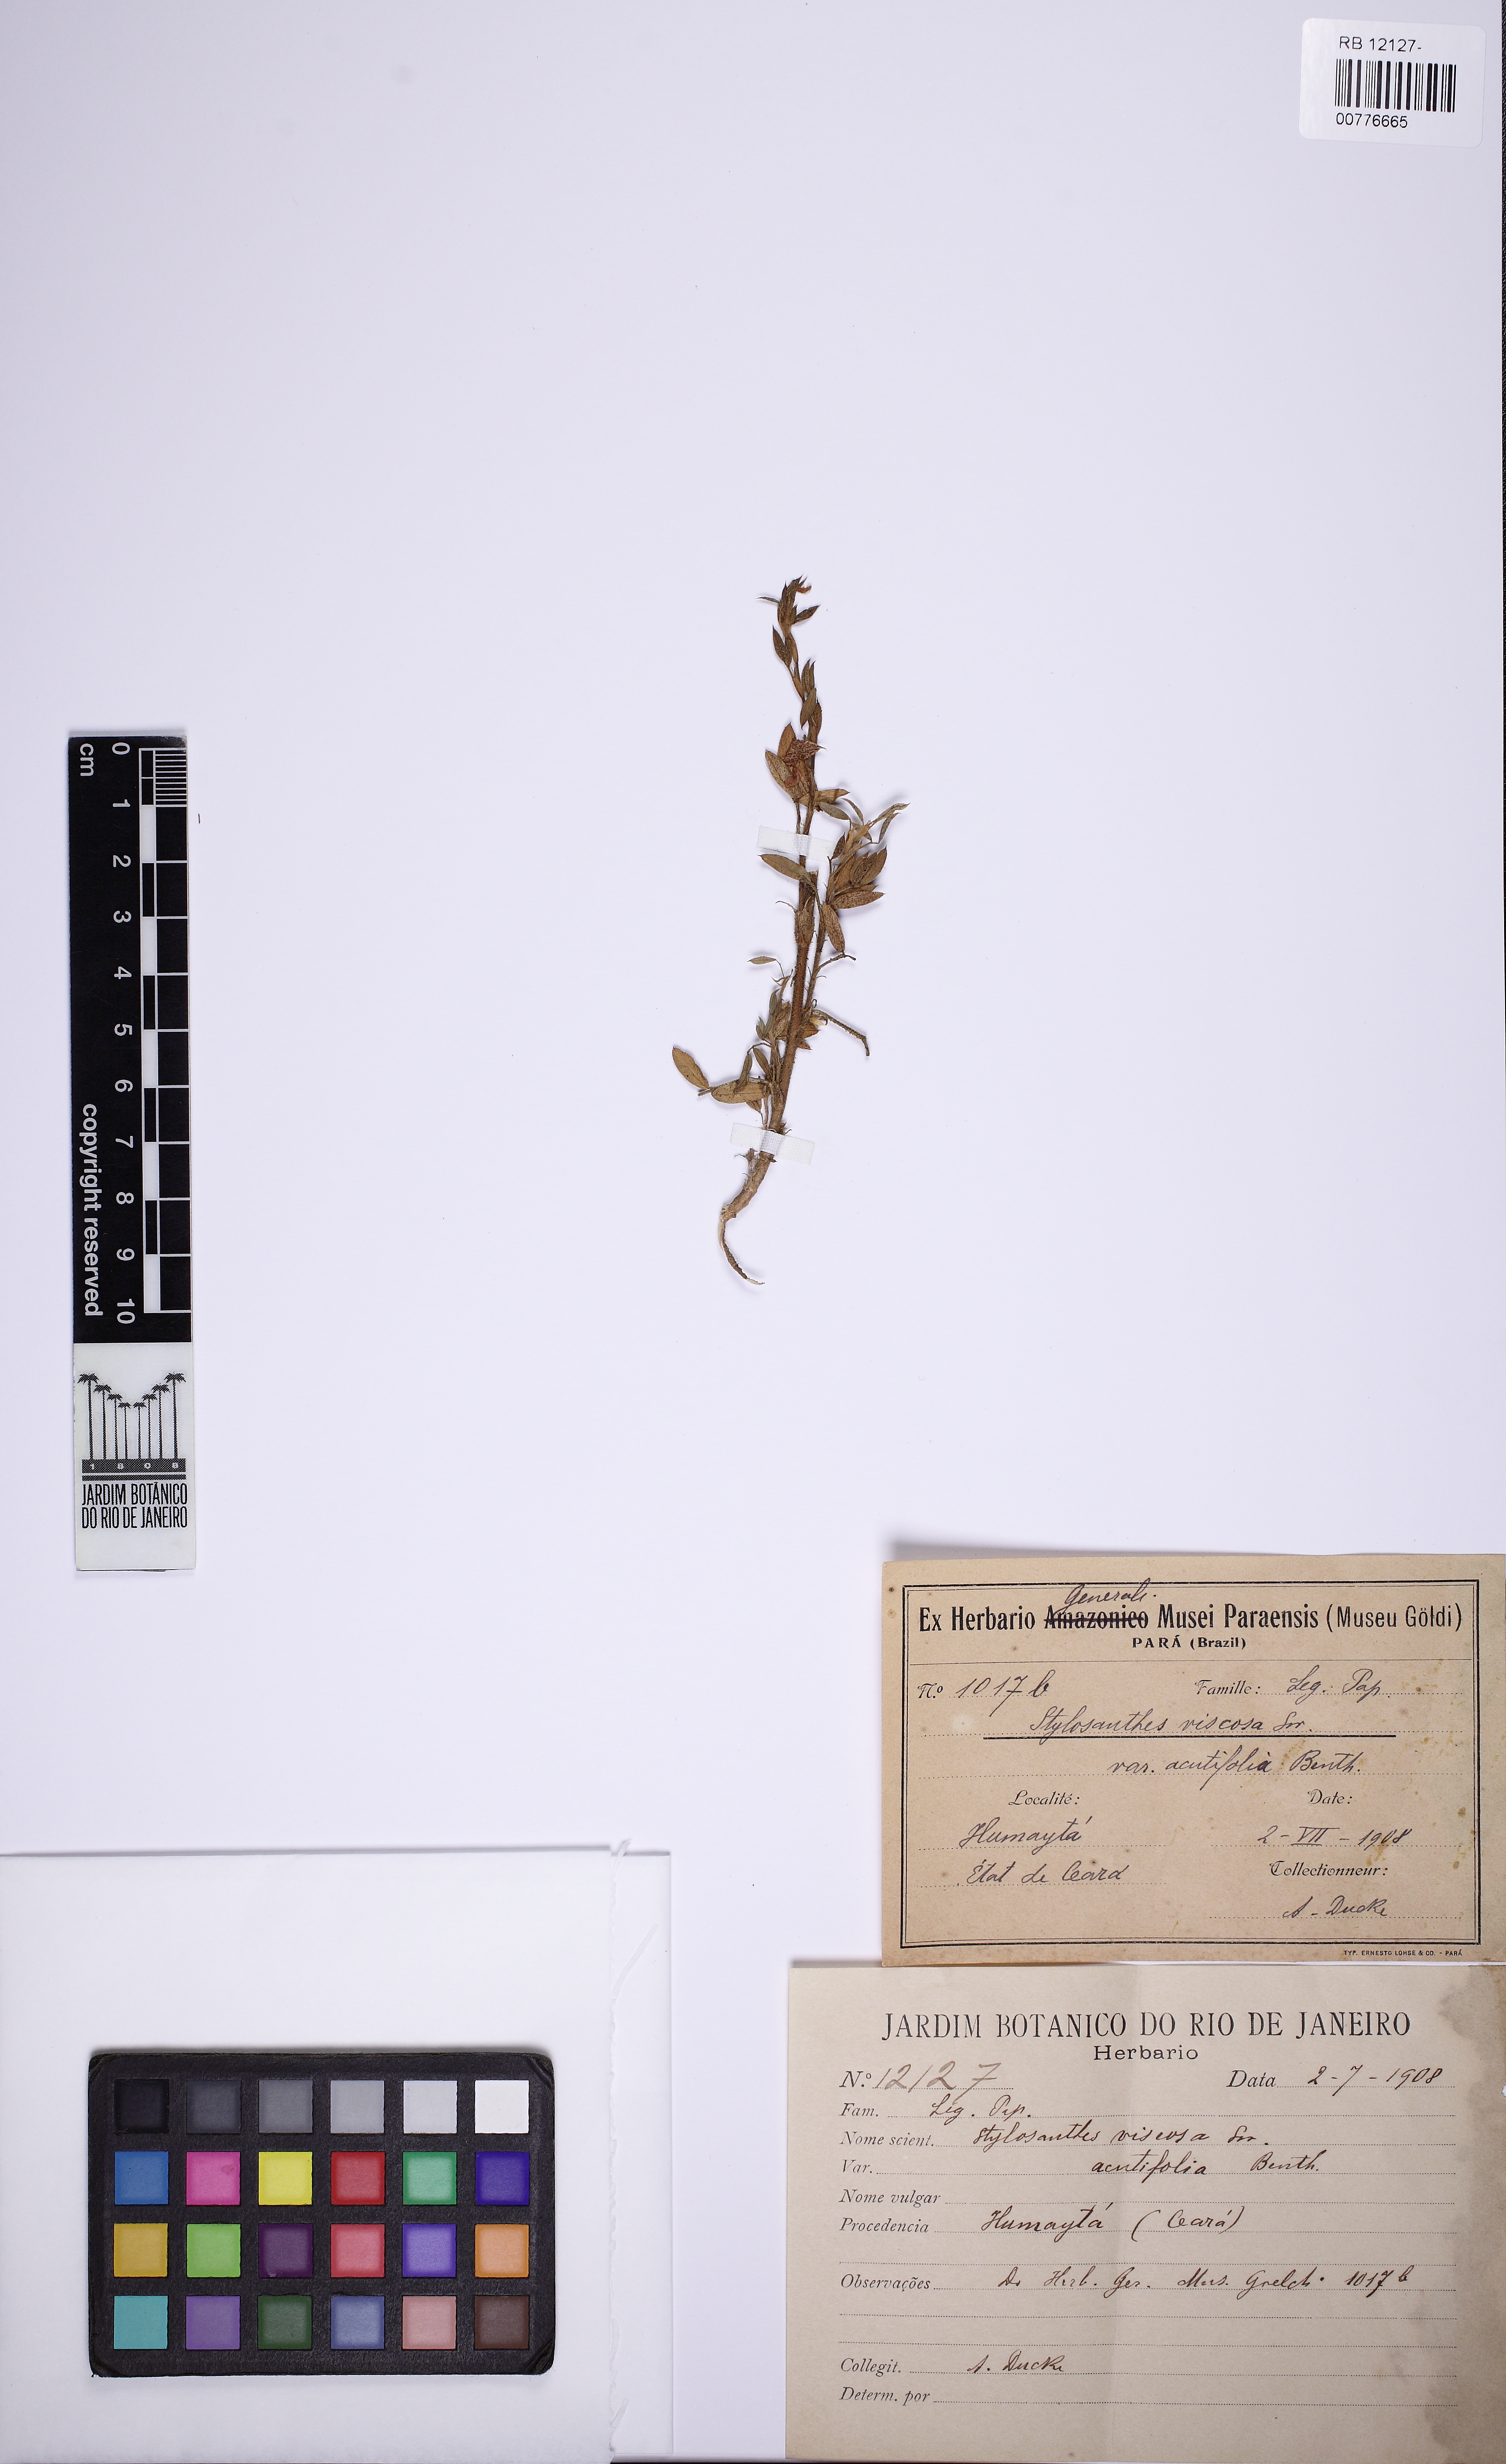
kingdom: Plantae
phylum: Tracheophyta
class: Magnoliopsida
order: Fabales
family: Fabaceae
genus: Stylosanthes
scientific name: Stylosanthes guianensis
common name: Pencil flower
